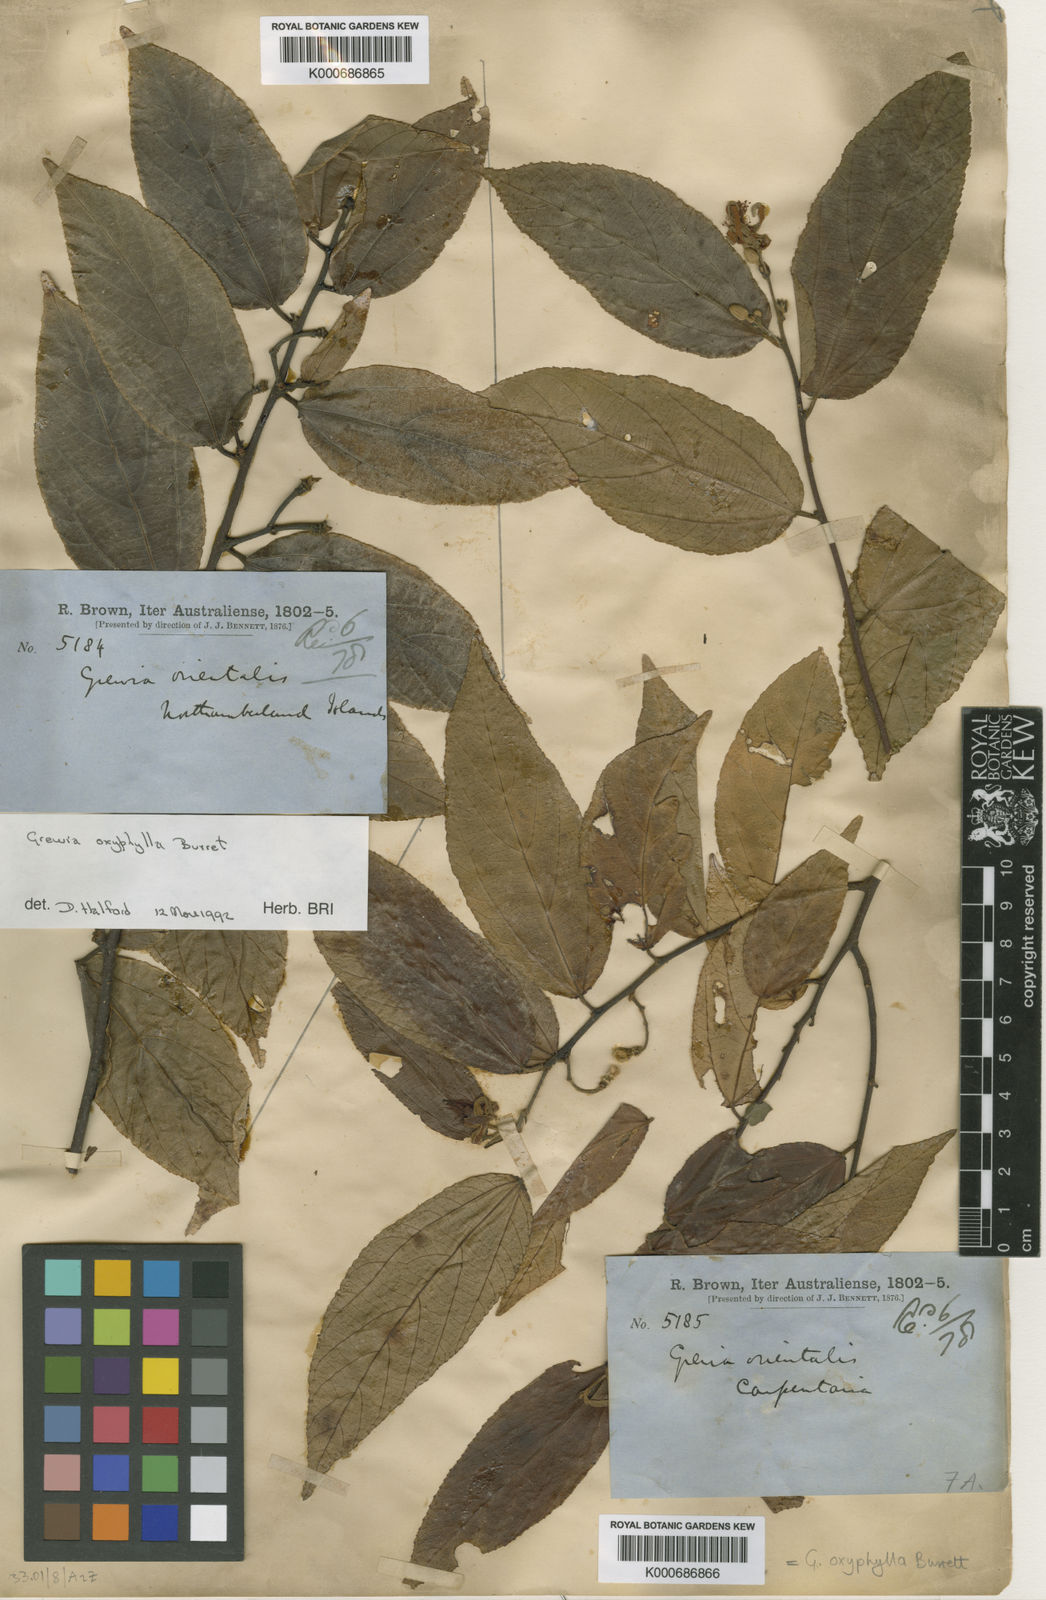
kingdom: Plantae
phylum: Tracheophyta
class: Magnoliopsida
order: Malvales
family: Malvaceae
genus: Grewia
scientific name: Grewia orientalis
